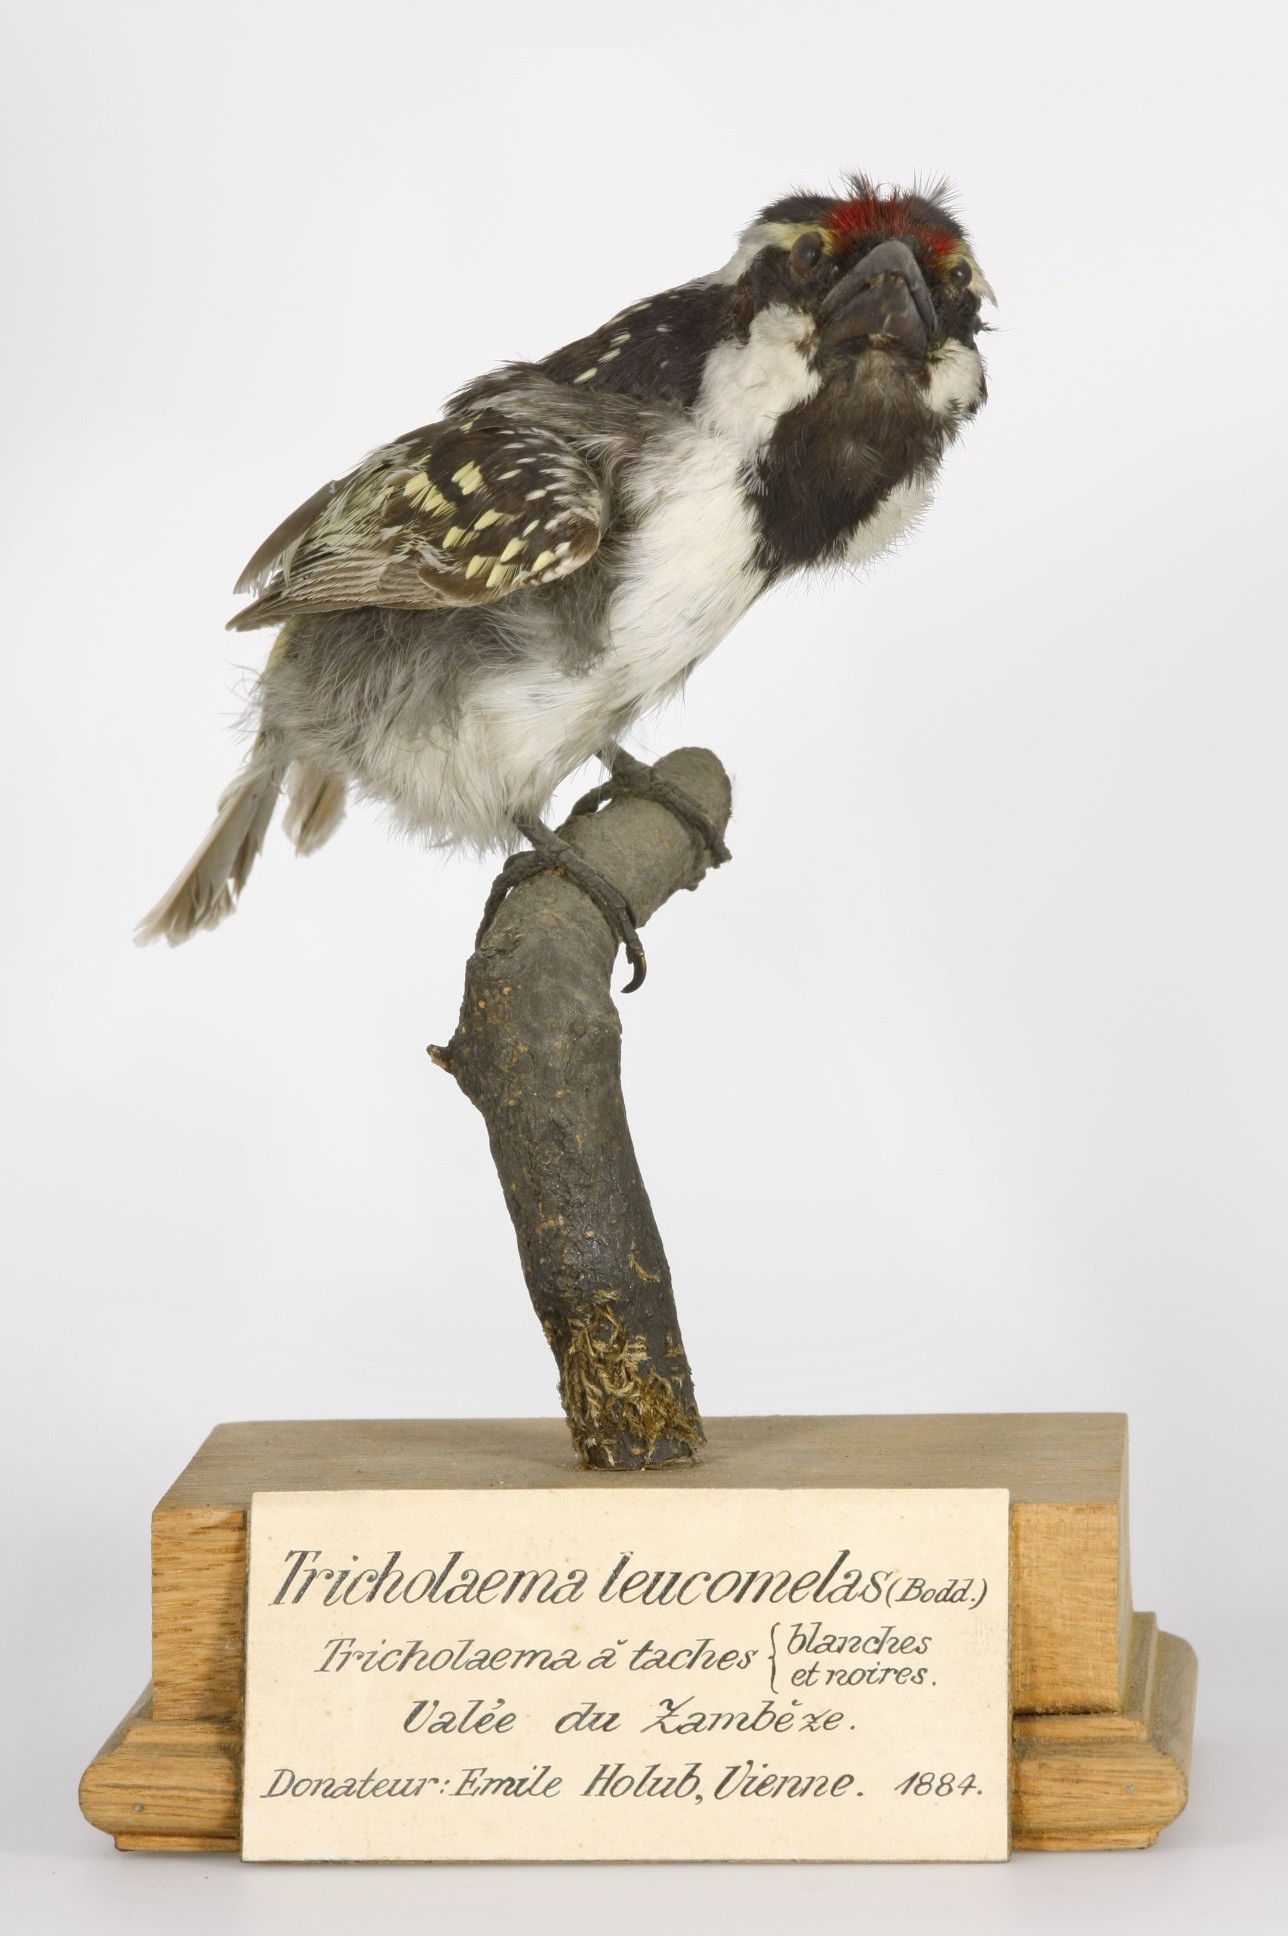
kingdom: Animalia
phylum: Chordata
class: Aves
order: Piciformes
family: Lybiidae
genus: Tricholaema
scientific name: Tricholaema leucomelas
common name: Acacia pied barbet
